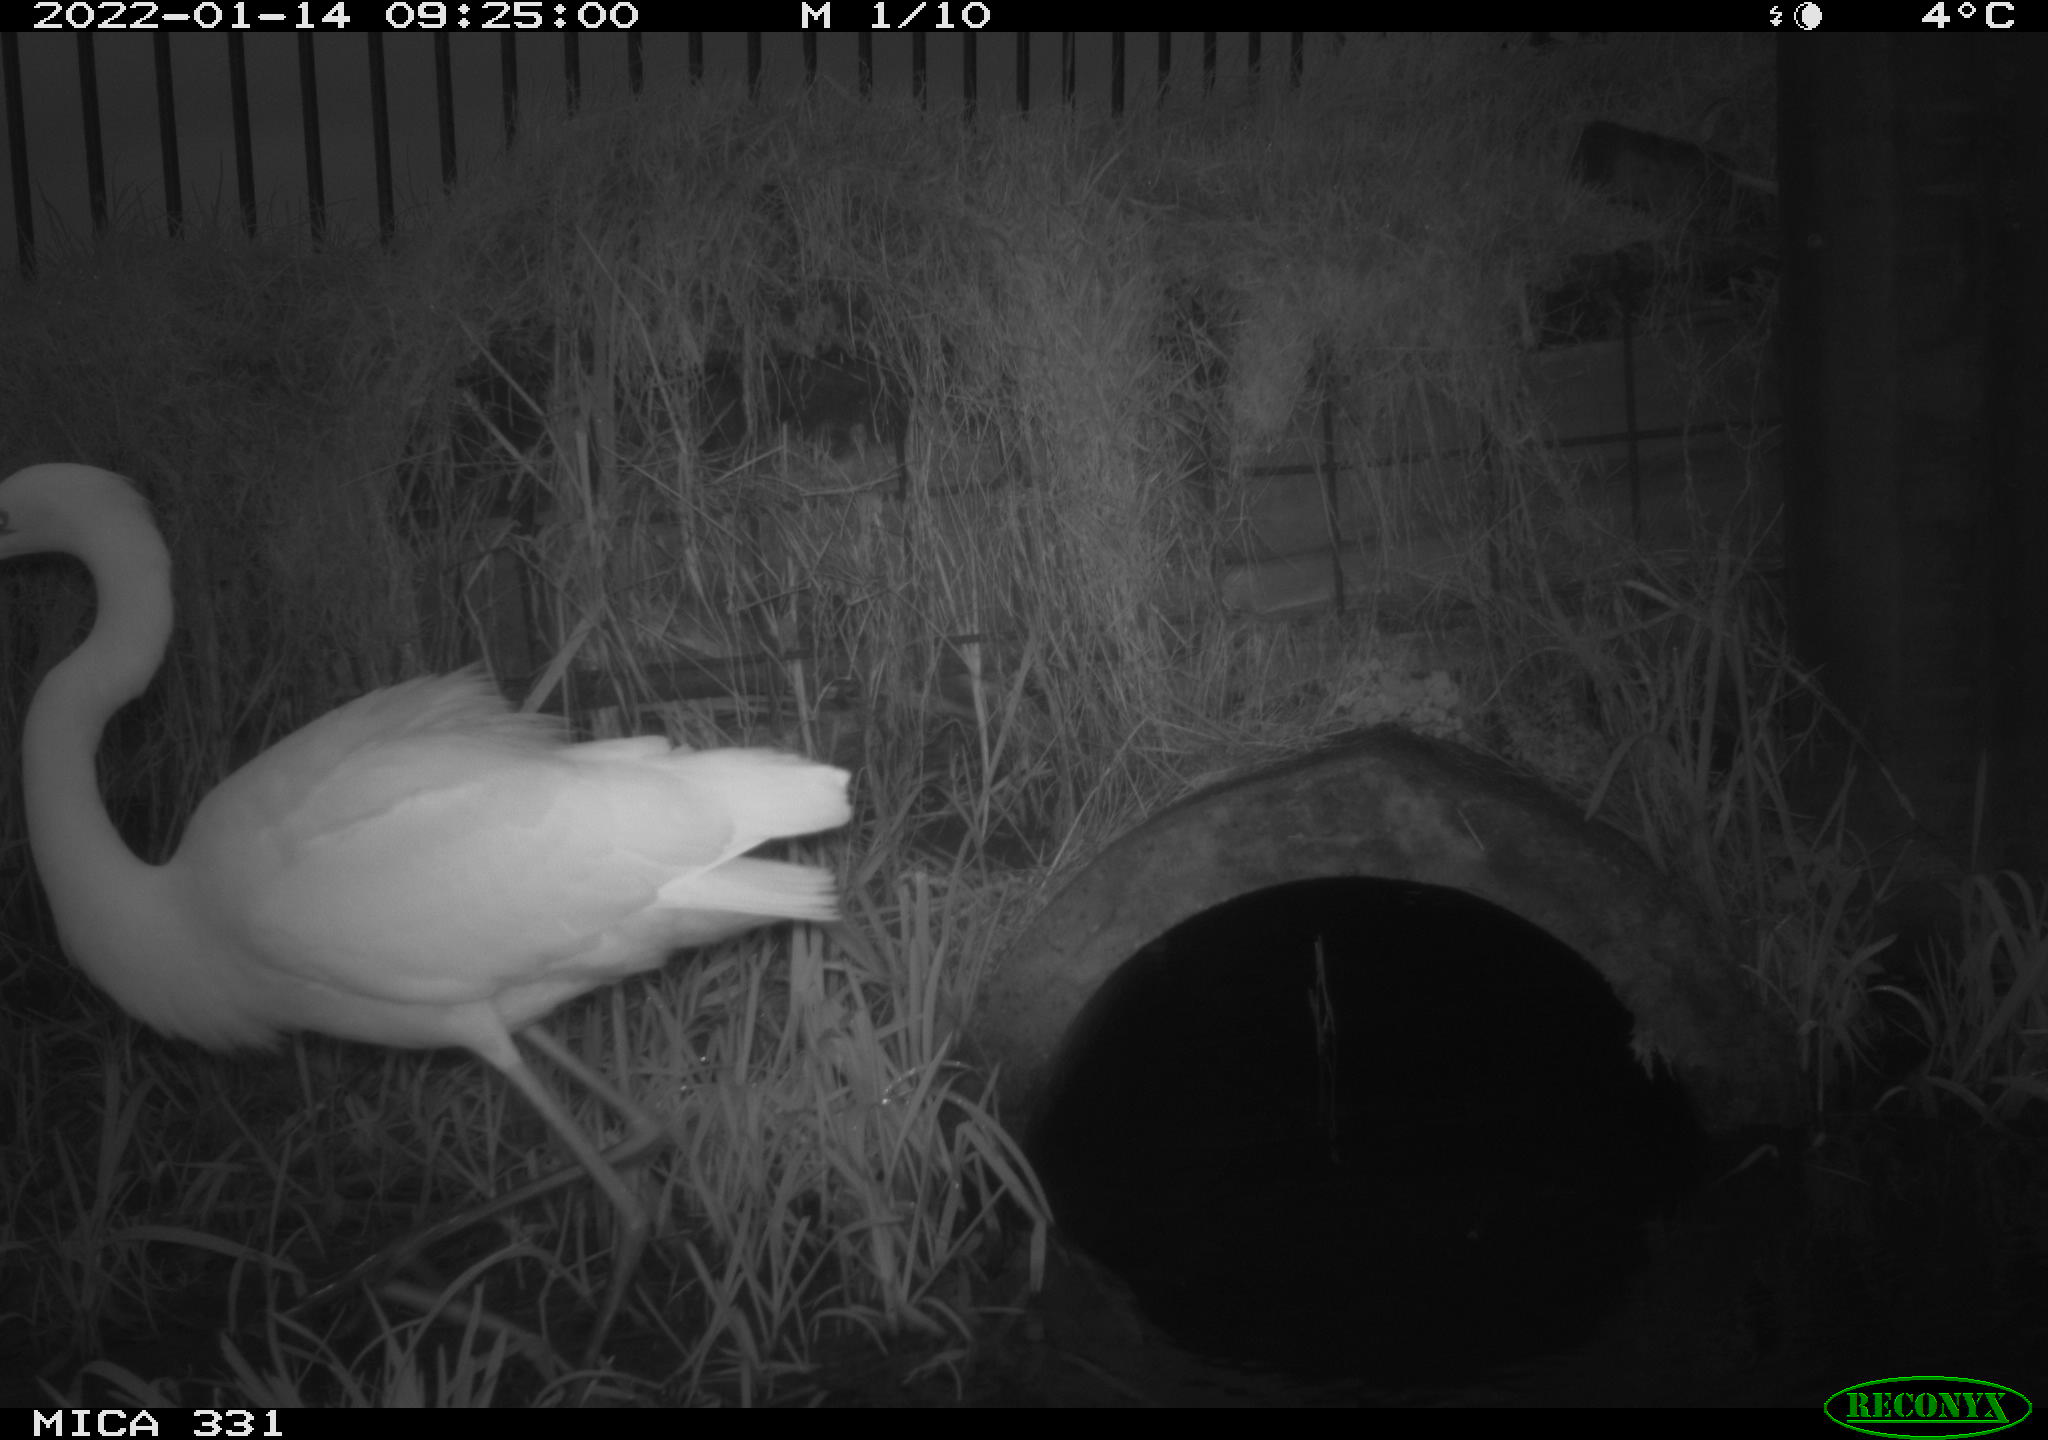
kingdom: Animalia
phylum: Chordata
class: Aves
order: Pelecaniformes
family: Ardeidae
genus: Ardea
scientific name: Ardea alba
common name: Great egret
